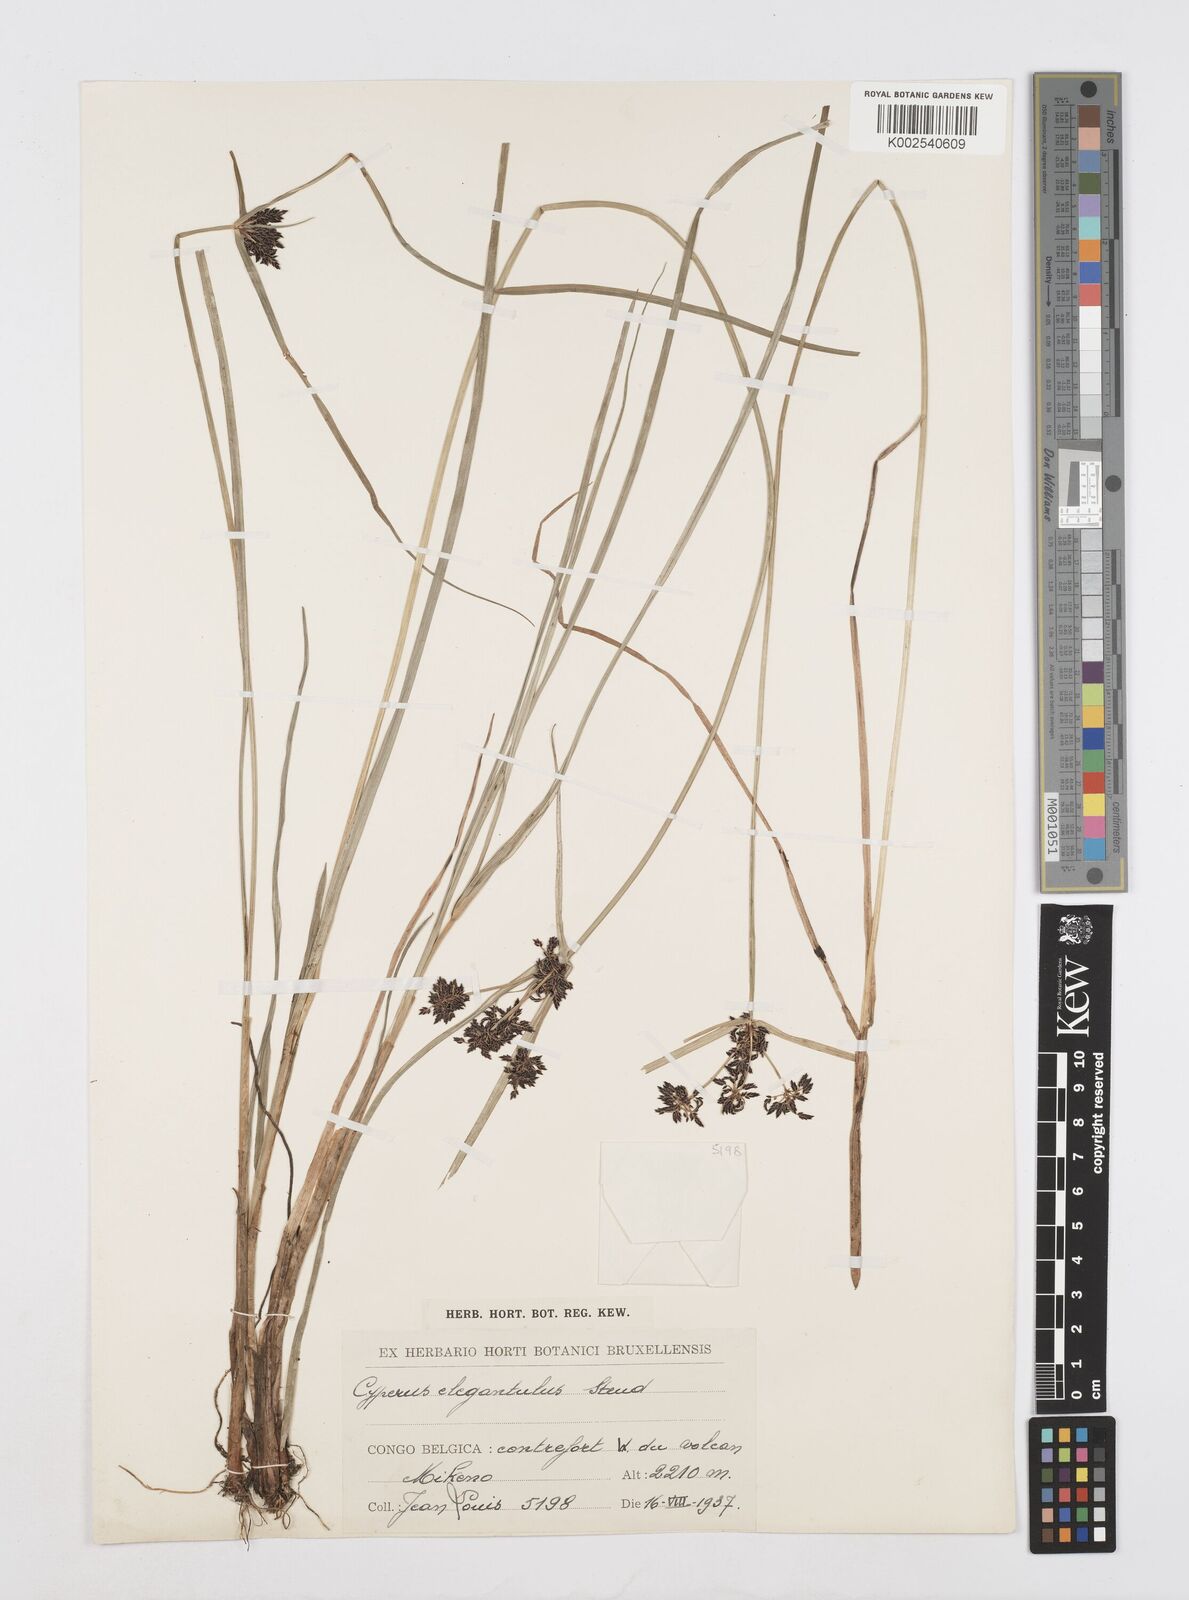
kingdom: Plantae
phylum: Tracheophyta
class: Liliopsida
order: Poales
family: Cyperaceae
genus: Cyperus
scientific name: Cyperus elegantulus
